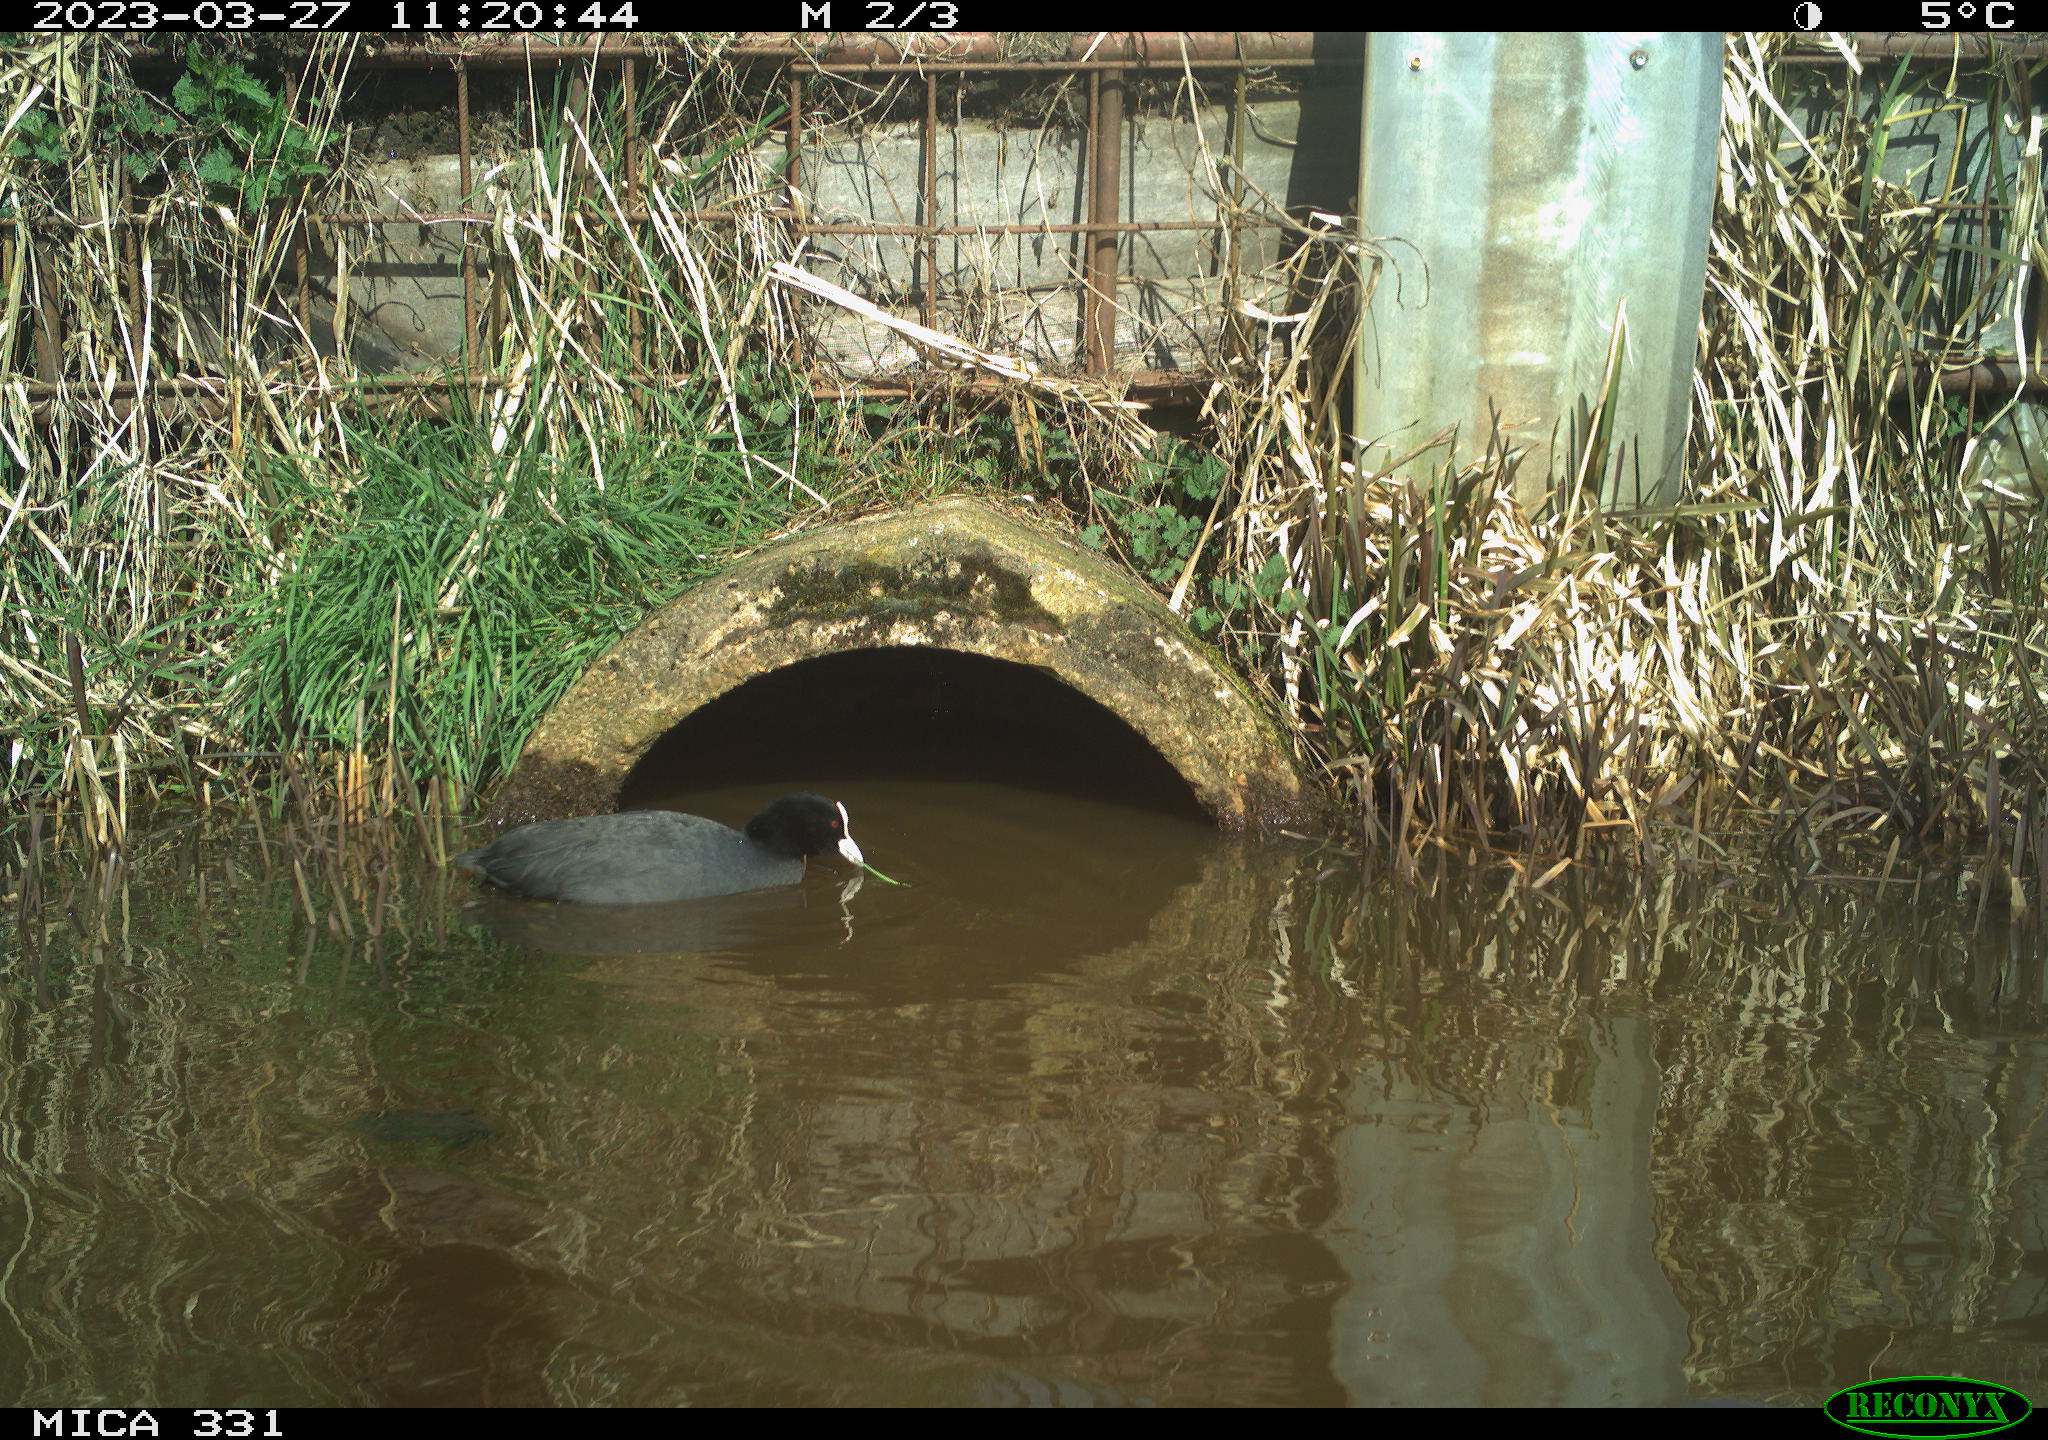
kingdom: Animalia
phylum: Chordata
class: Aves
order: Gruiformes
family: Rallidae
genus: Fulica
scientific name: Fulica atra
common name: Eurasian coot
